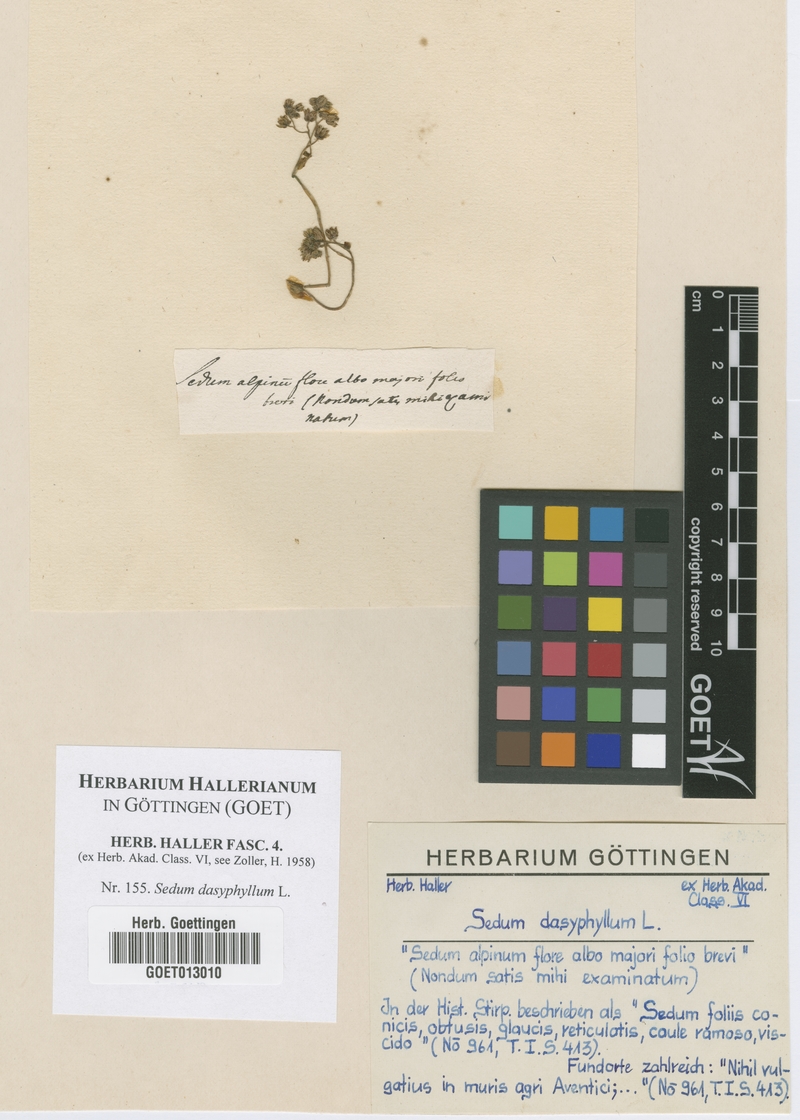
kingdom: Plantae
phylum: Tracheophyta
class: Magnoliopsida
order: Saxifragales
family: Crassulaceae
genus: Sedum
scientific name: Sedum dasyphyllum
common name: Thick-leaf stonecrop
